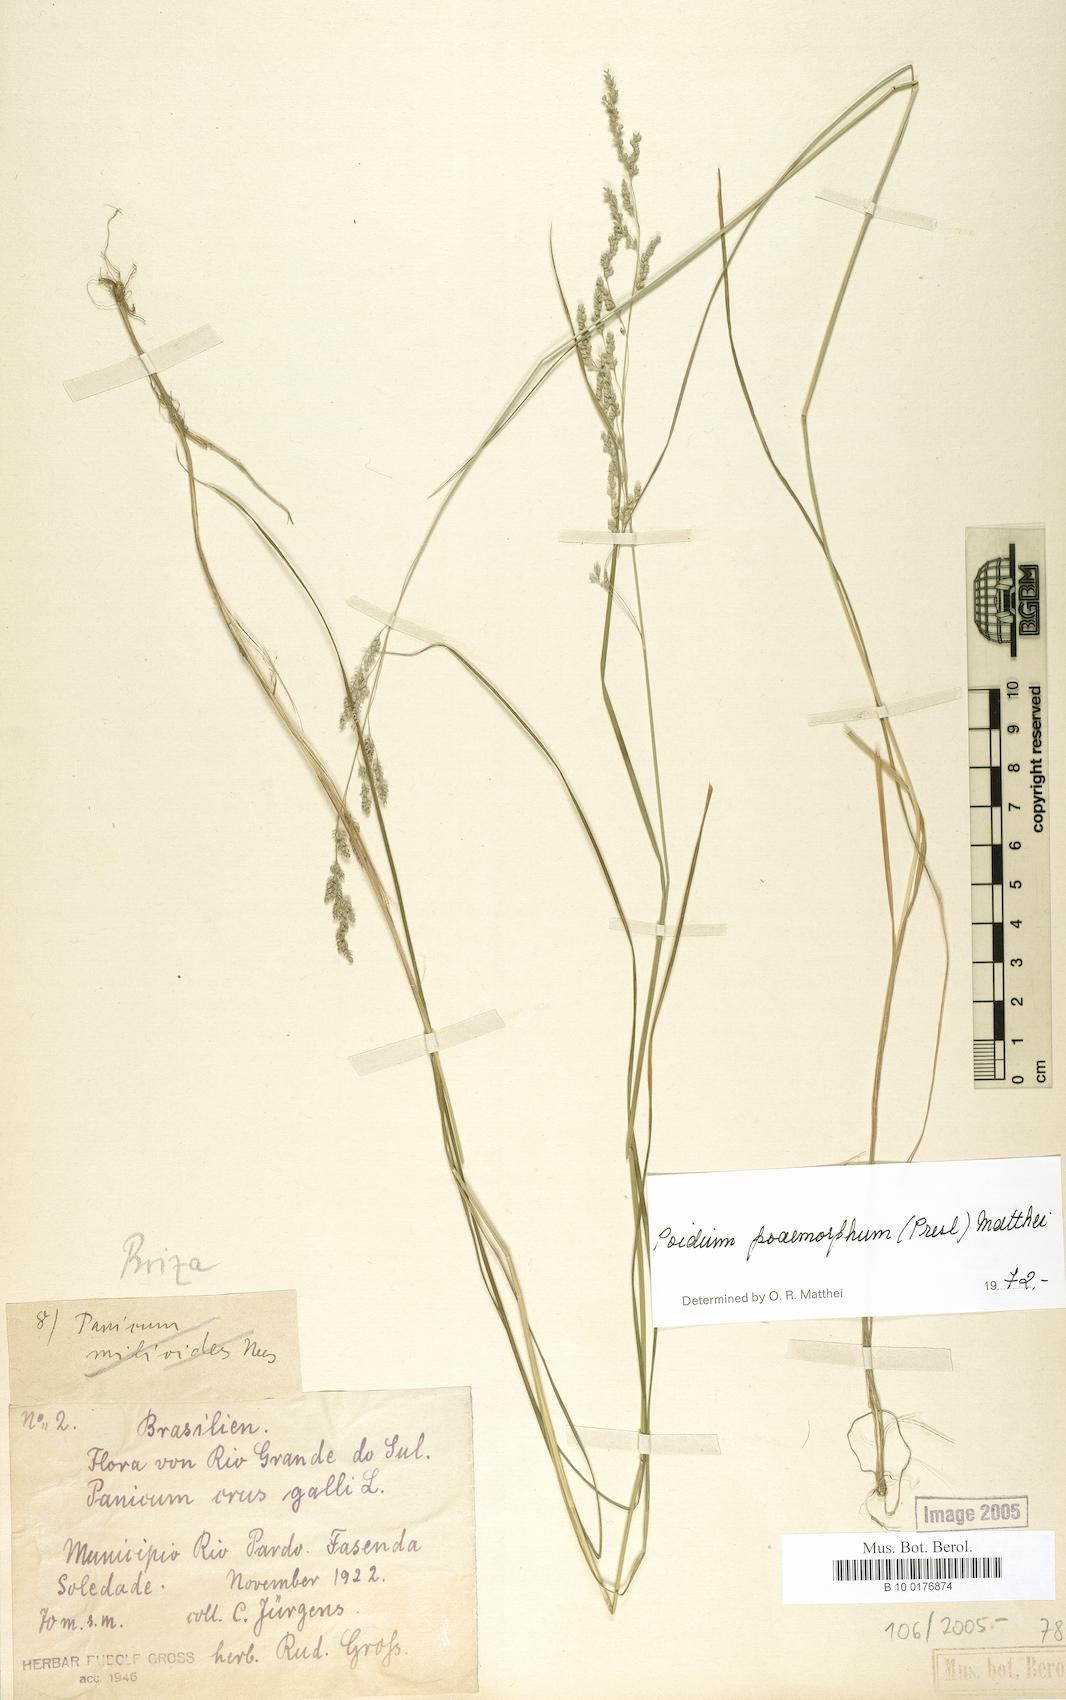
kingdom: Plantae
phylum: Tracheophyta
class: Liliopsida
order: Poales
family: Poaceae
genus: Chascolytrum
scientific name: Chascolytrum poomorphum
